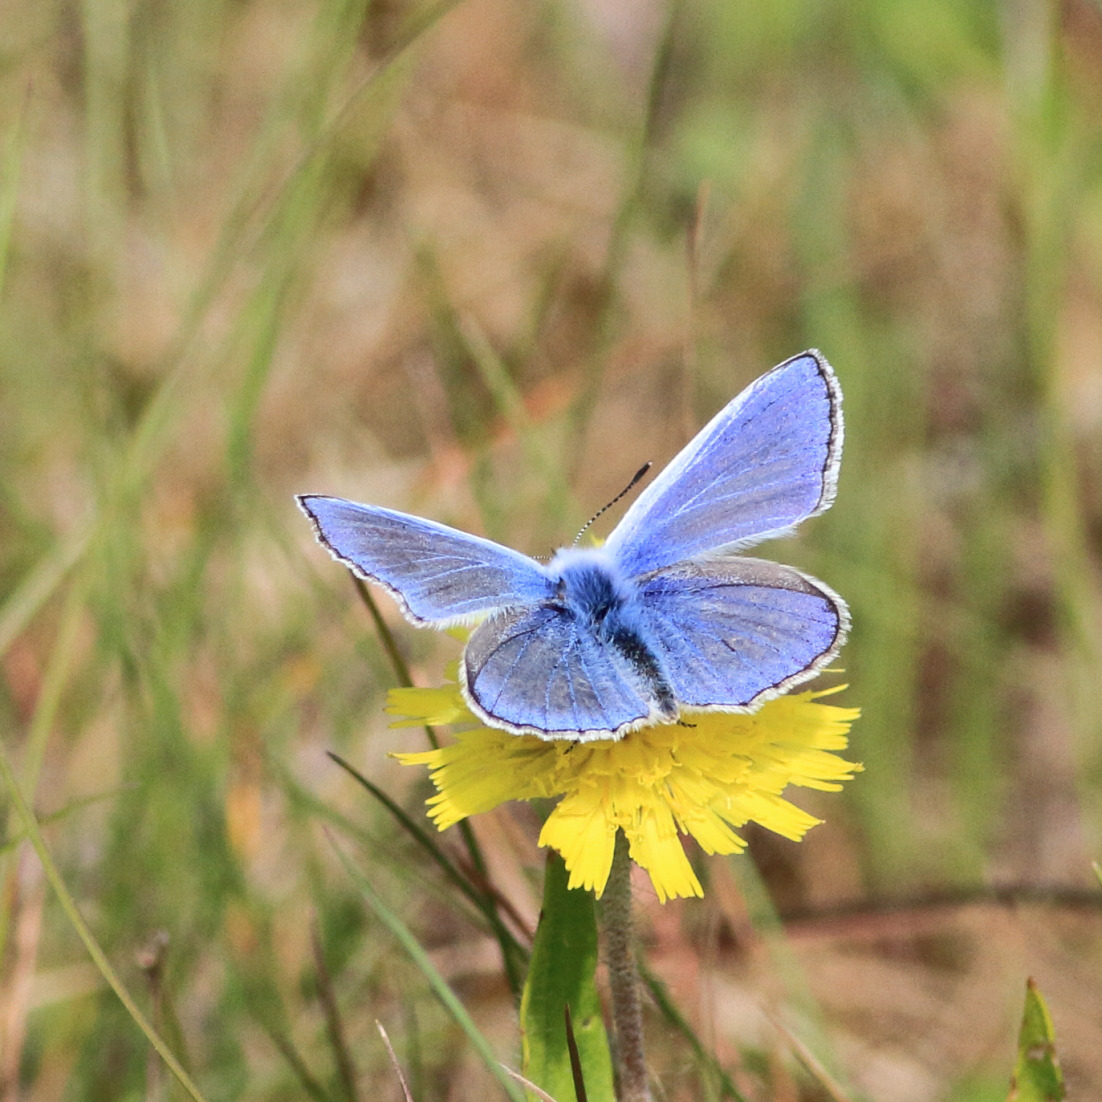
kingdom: Animalia
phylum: Arthropoda
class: Insecta
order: Lepidoptera
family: Lycaenidae
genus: Polyommatus
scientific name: Polyommatus icarus
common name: Almindelig blåfugl
